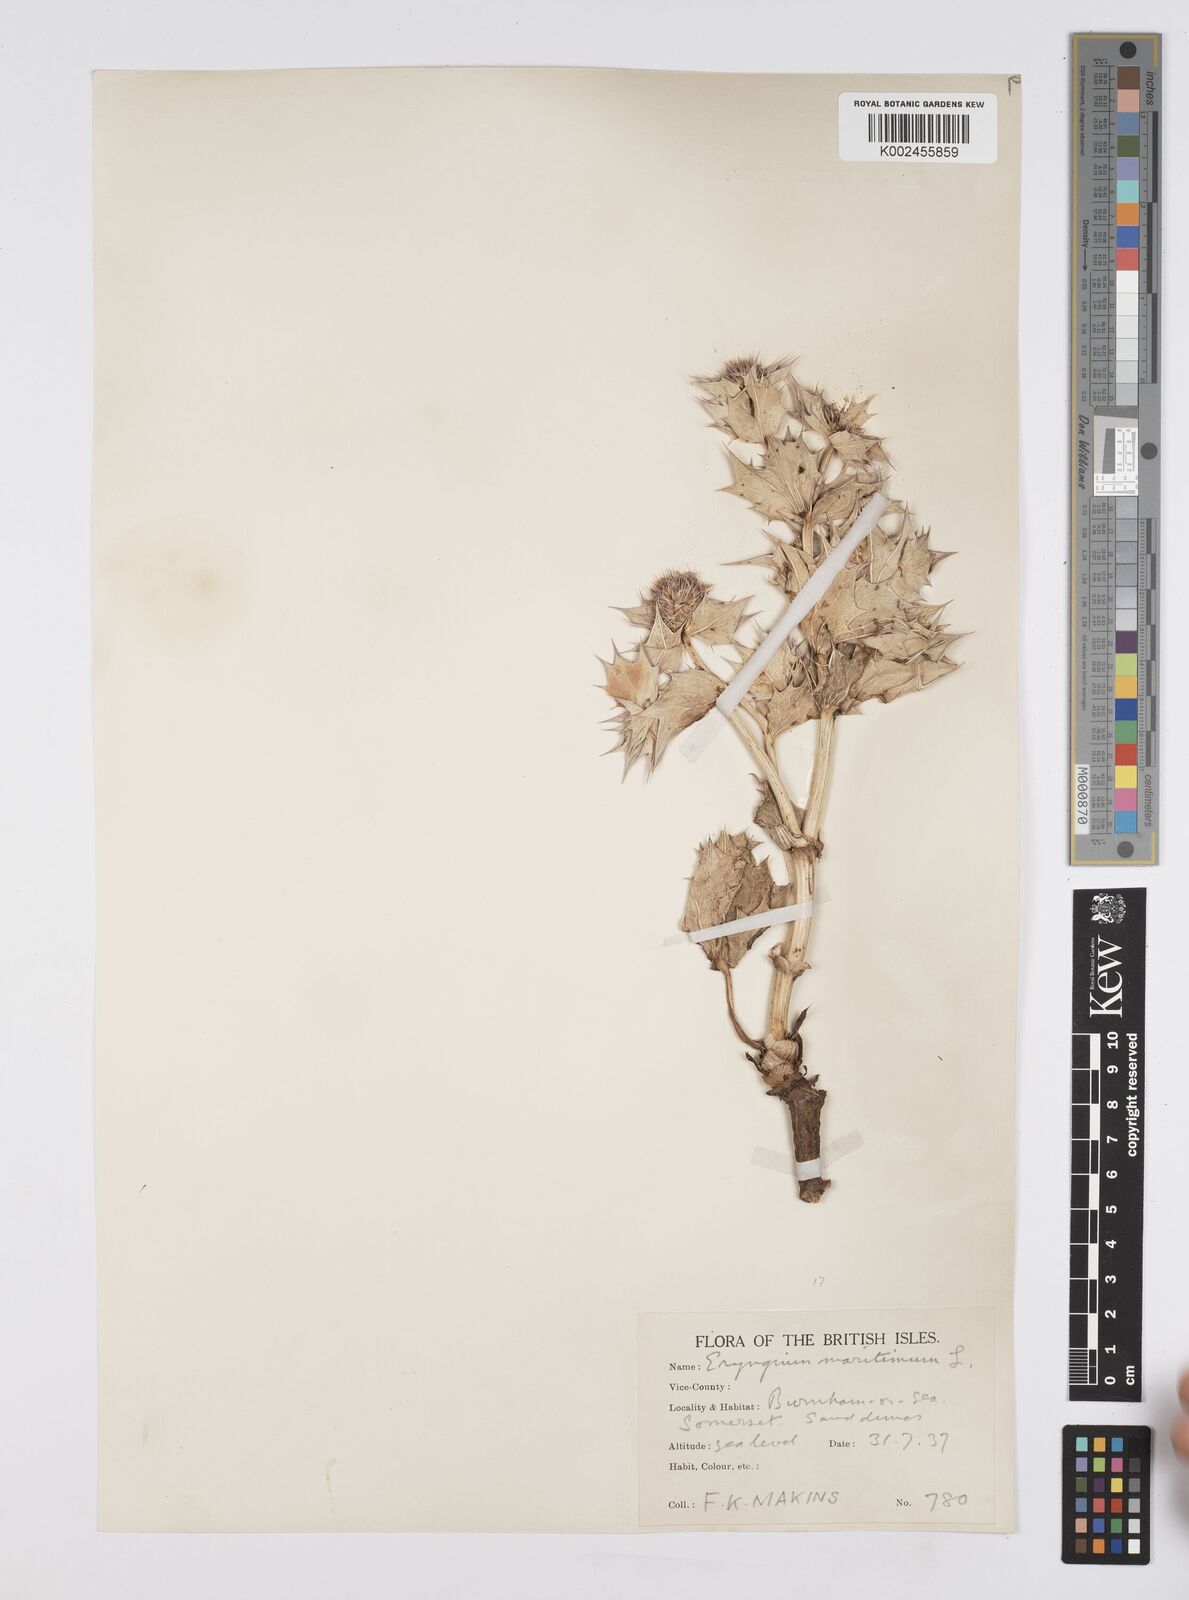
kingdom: Plantae
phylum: Tracheophyta
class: Magnoliopsida
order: Apiales
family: Apiaceae
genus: Eryngium
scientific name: Eryngium maritimum
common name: Sea-holly
